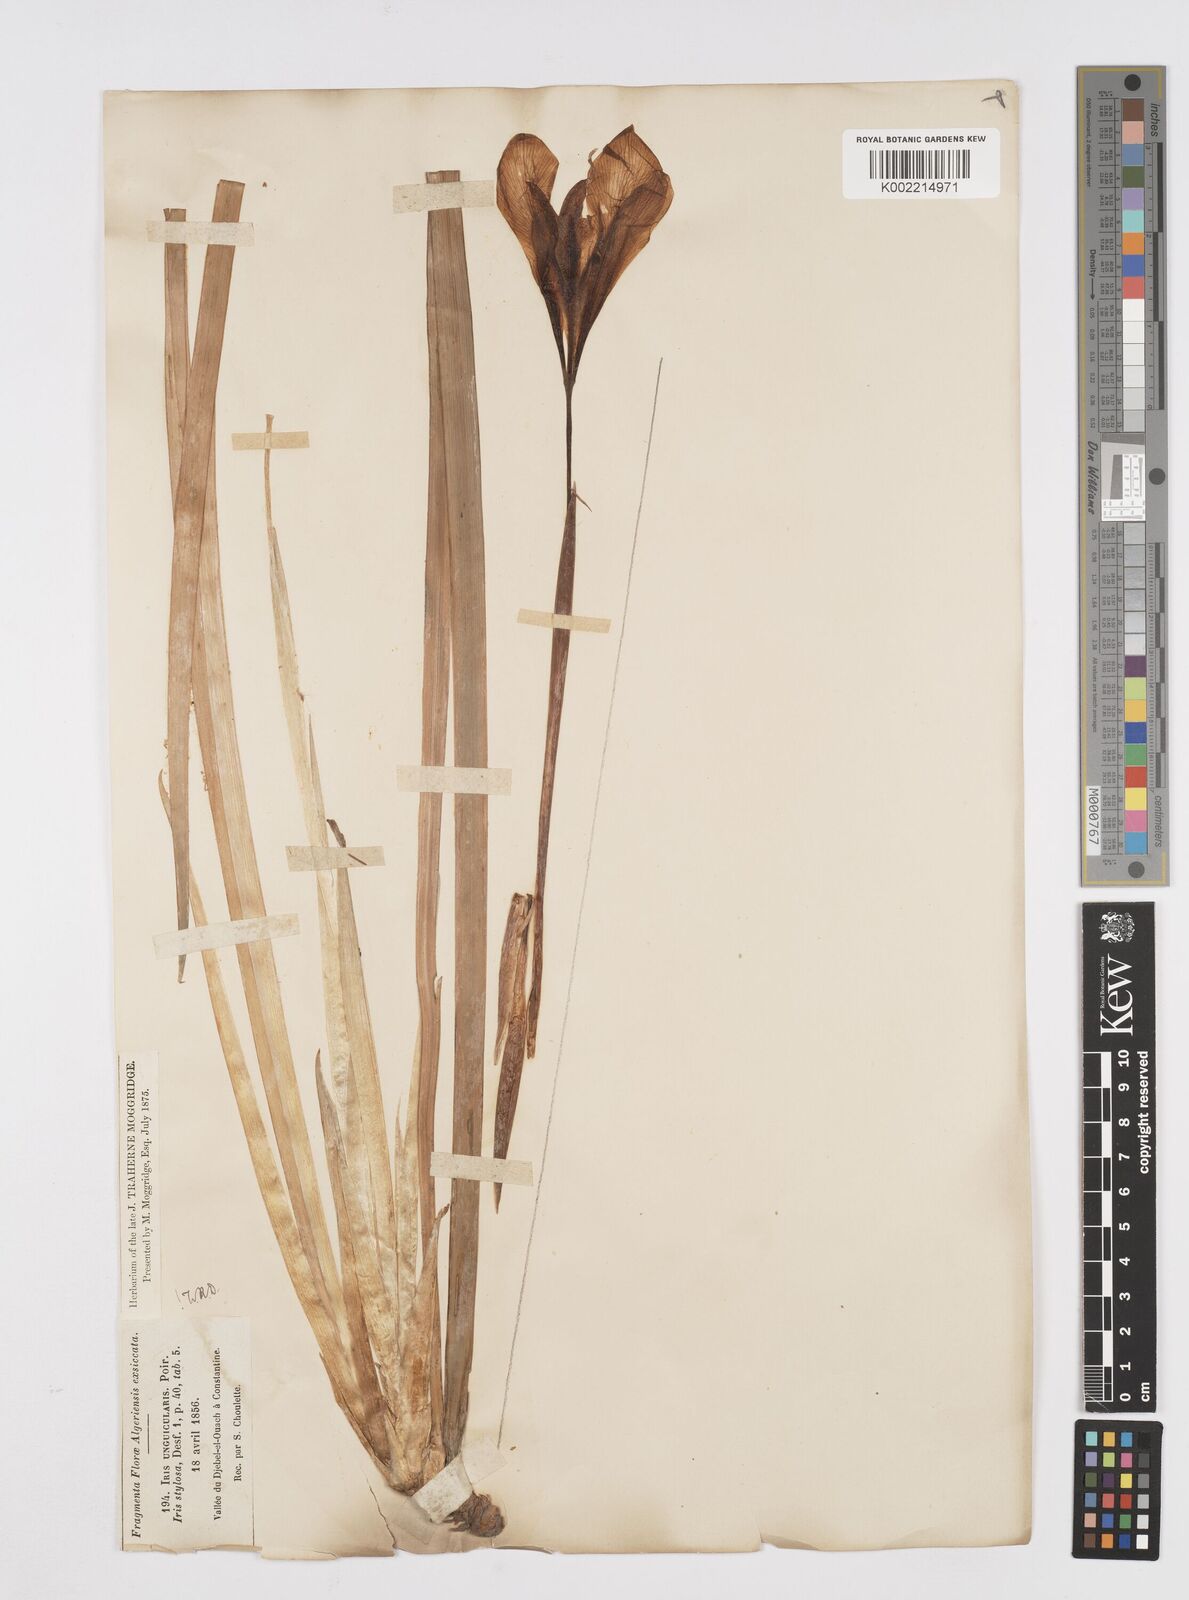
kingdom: Plantae
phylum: Tracheophyta
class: Liliopsida
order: Asparagales
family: Iridaceae
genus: Iris
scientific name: Iris unguicularis
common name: Algerian iris
